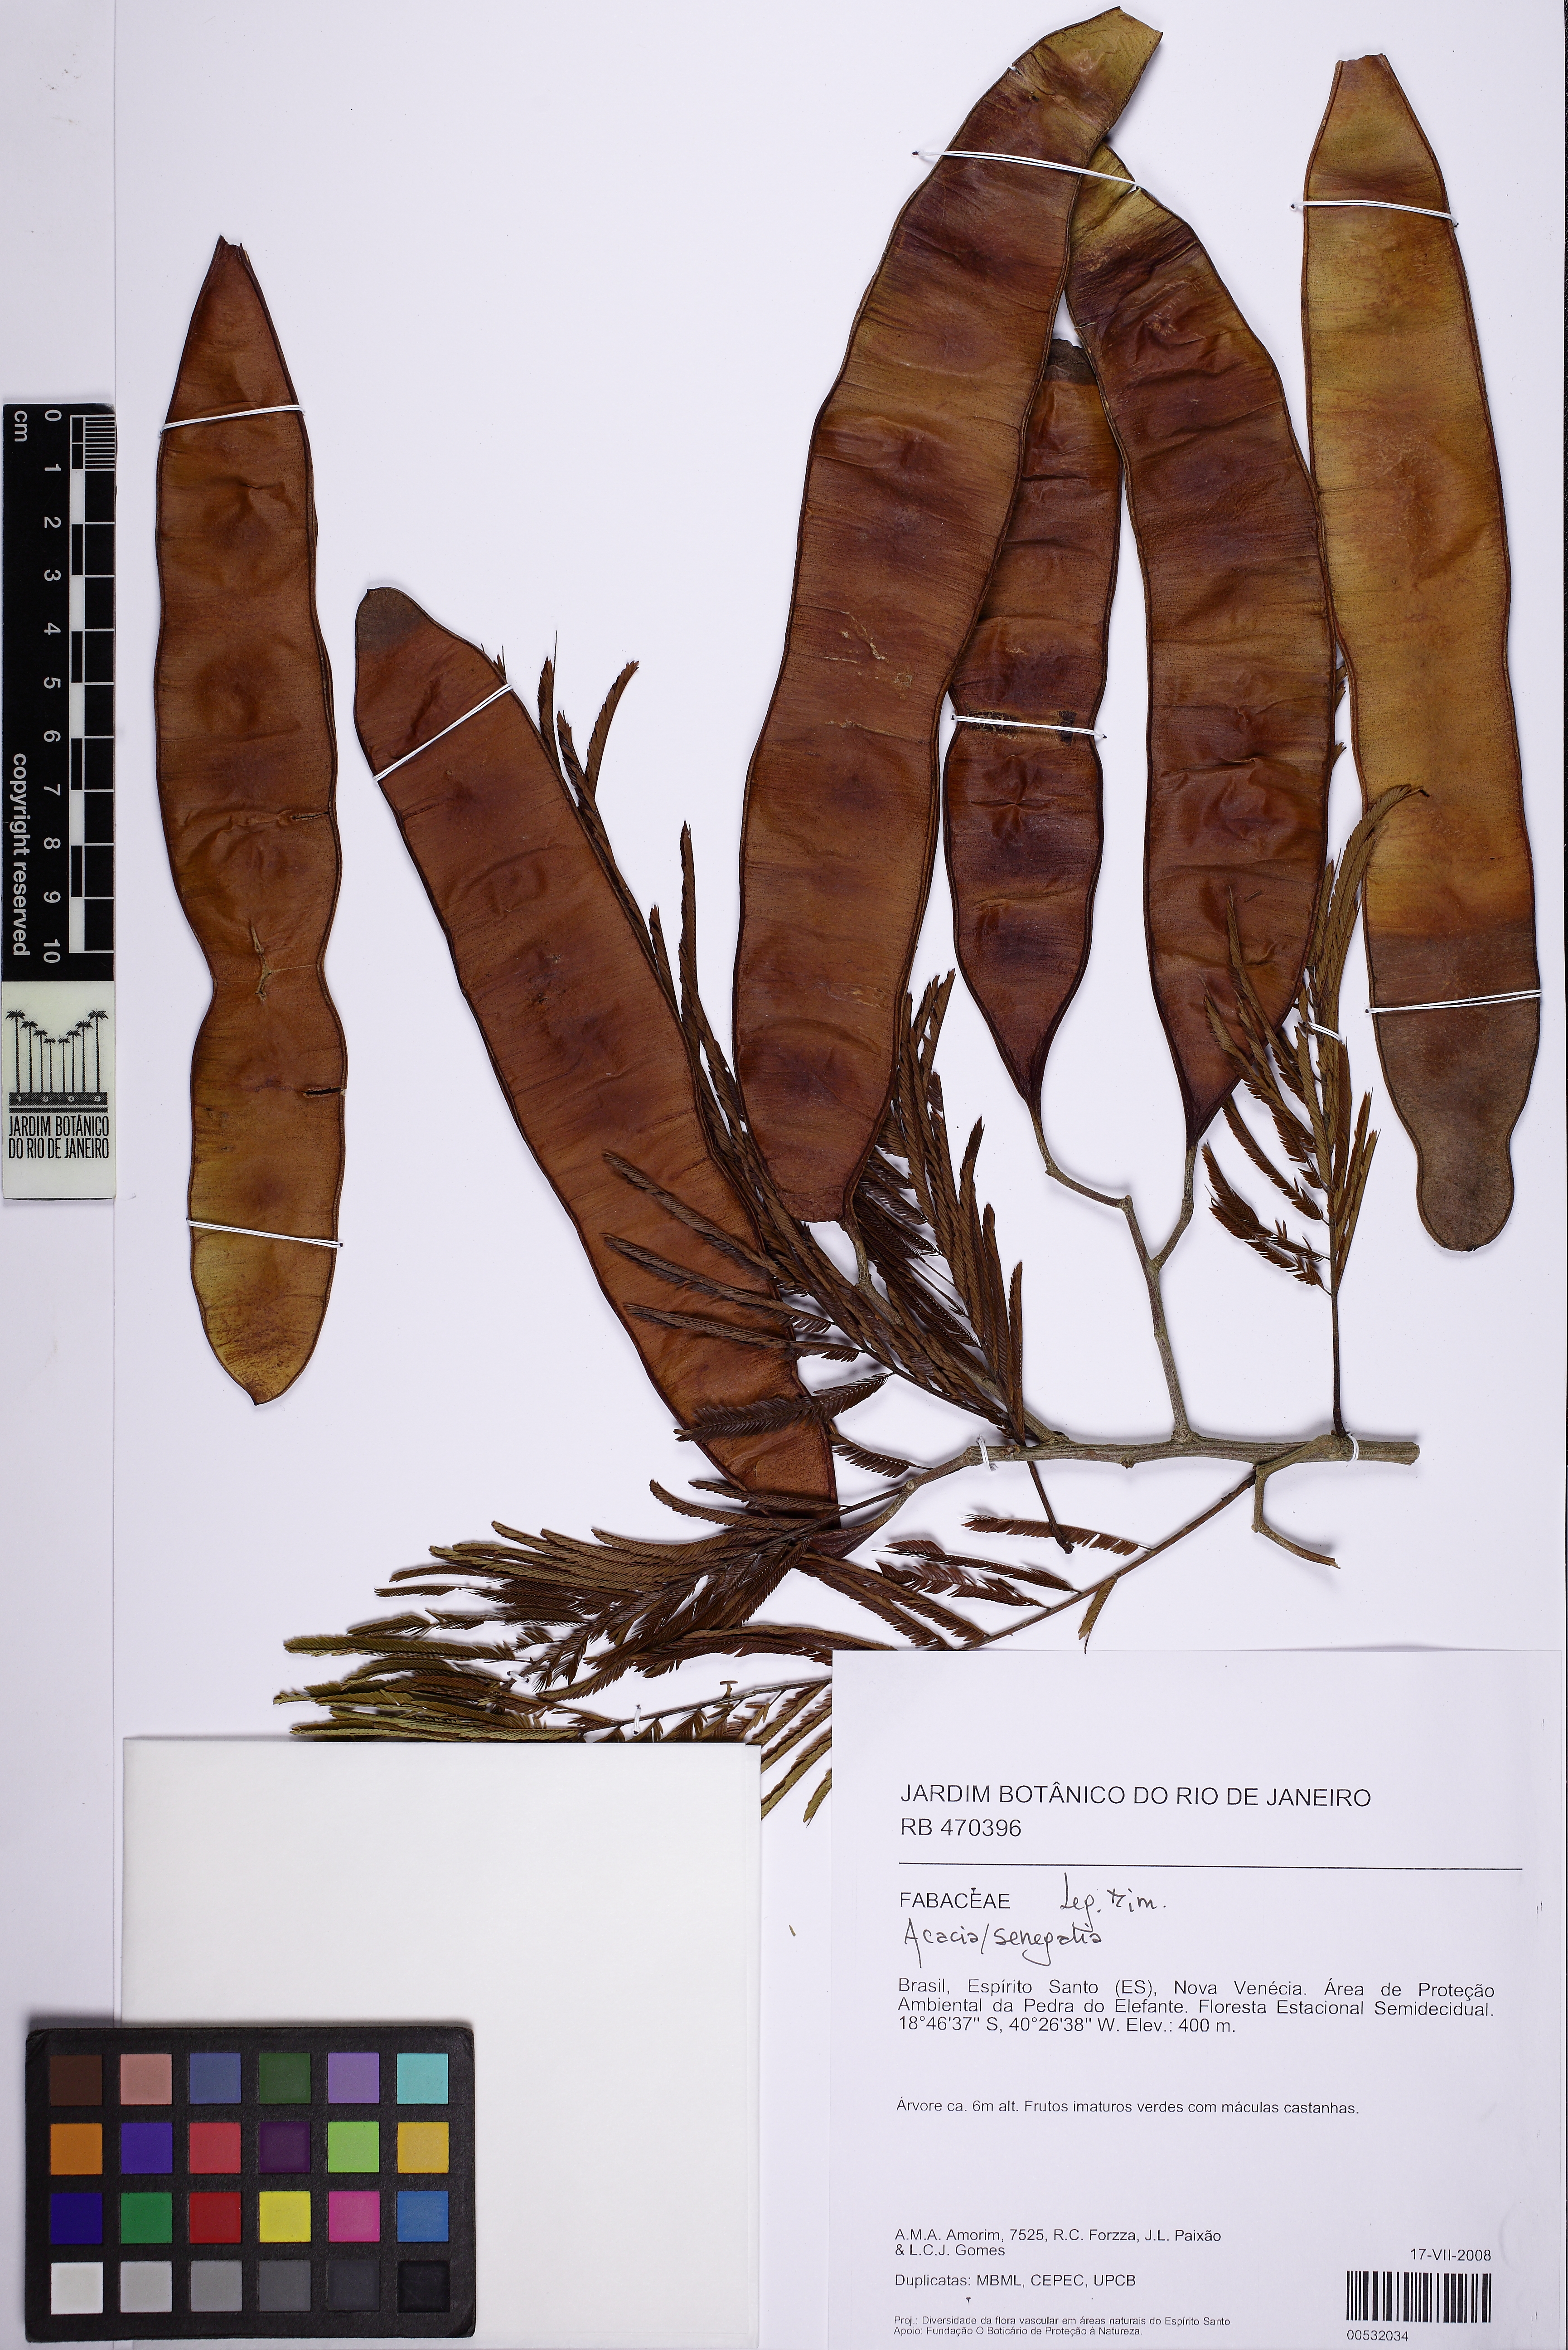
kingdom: Plantae
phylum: Tracheophyta
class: Magnoliopsida
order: Fabales
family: Fabaceae
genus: Senegalia
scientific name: Senegalia paniculata
